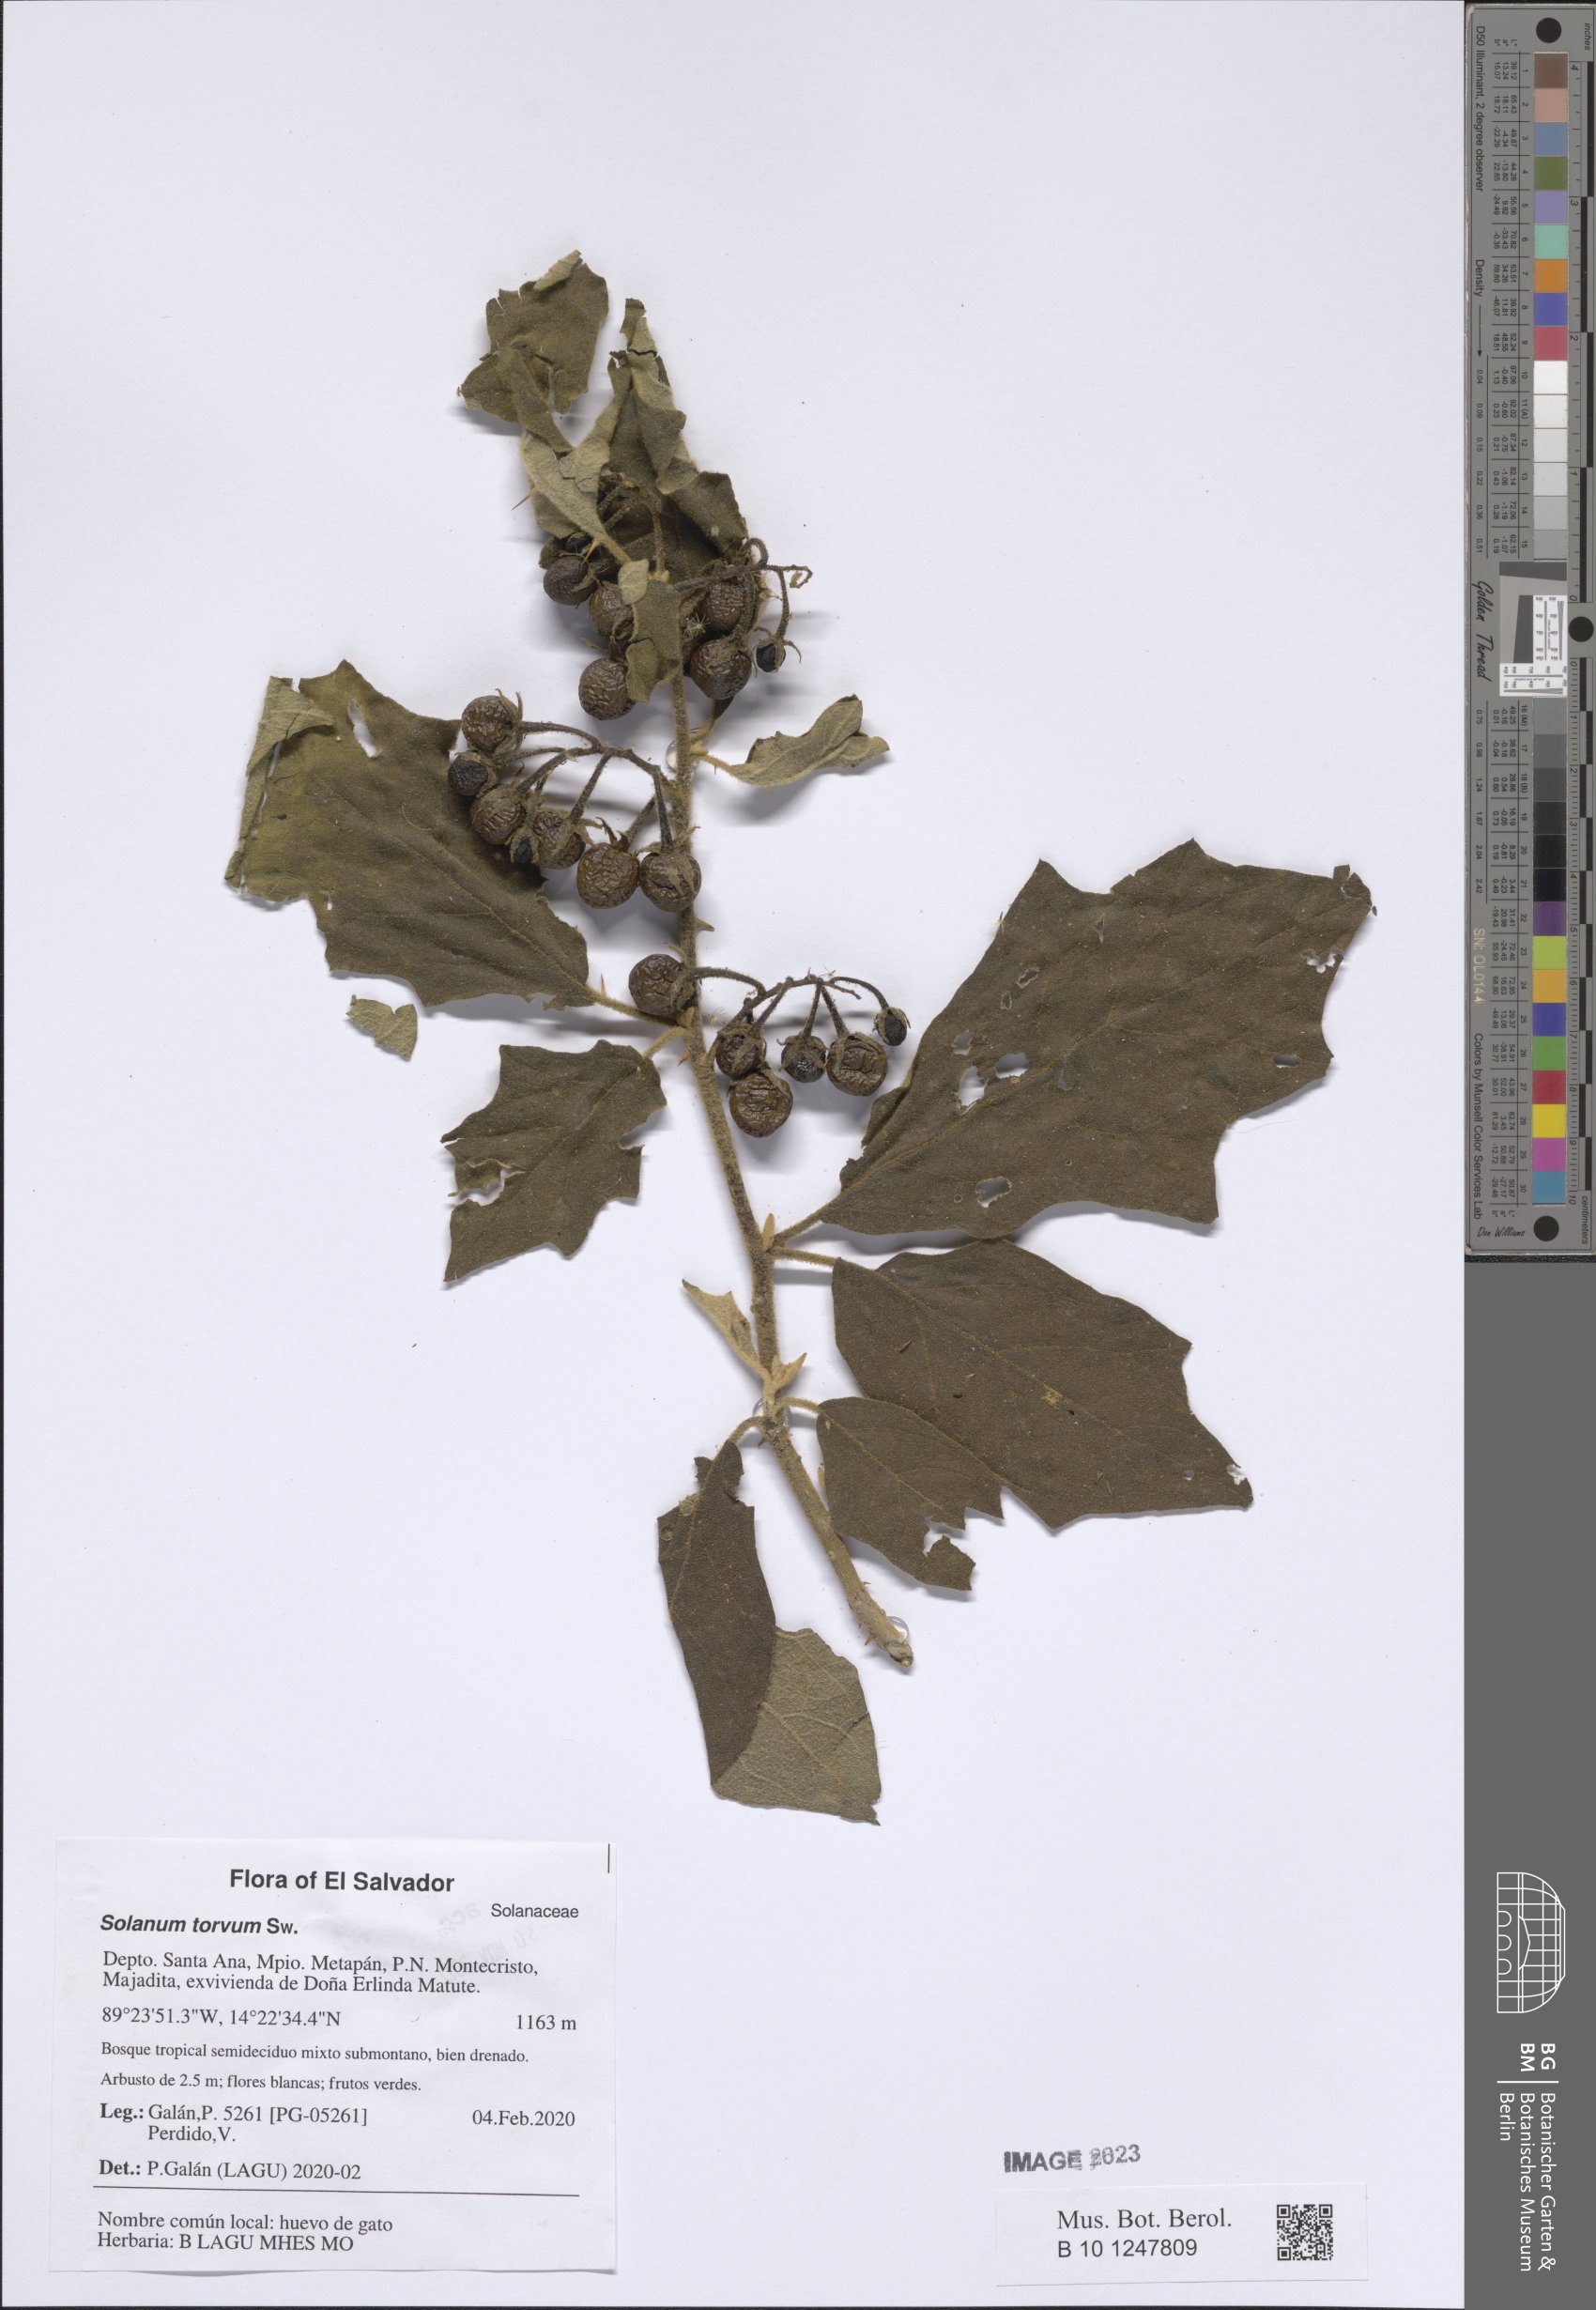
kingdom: Plantae
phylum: Tracheophyta
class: Magnoliopsida
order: Solanales
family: Solanaceae
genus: Solanum
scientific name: Solanum torvum
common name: Turkey berry
